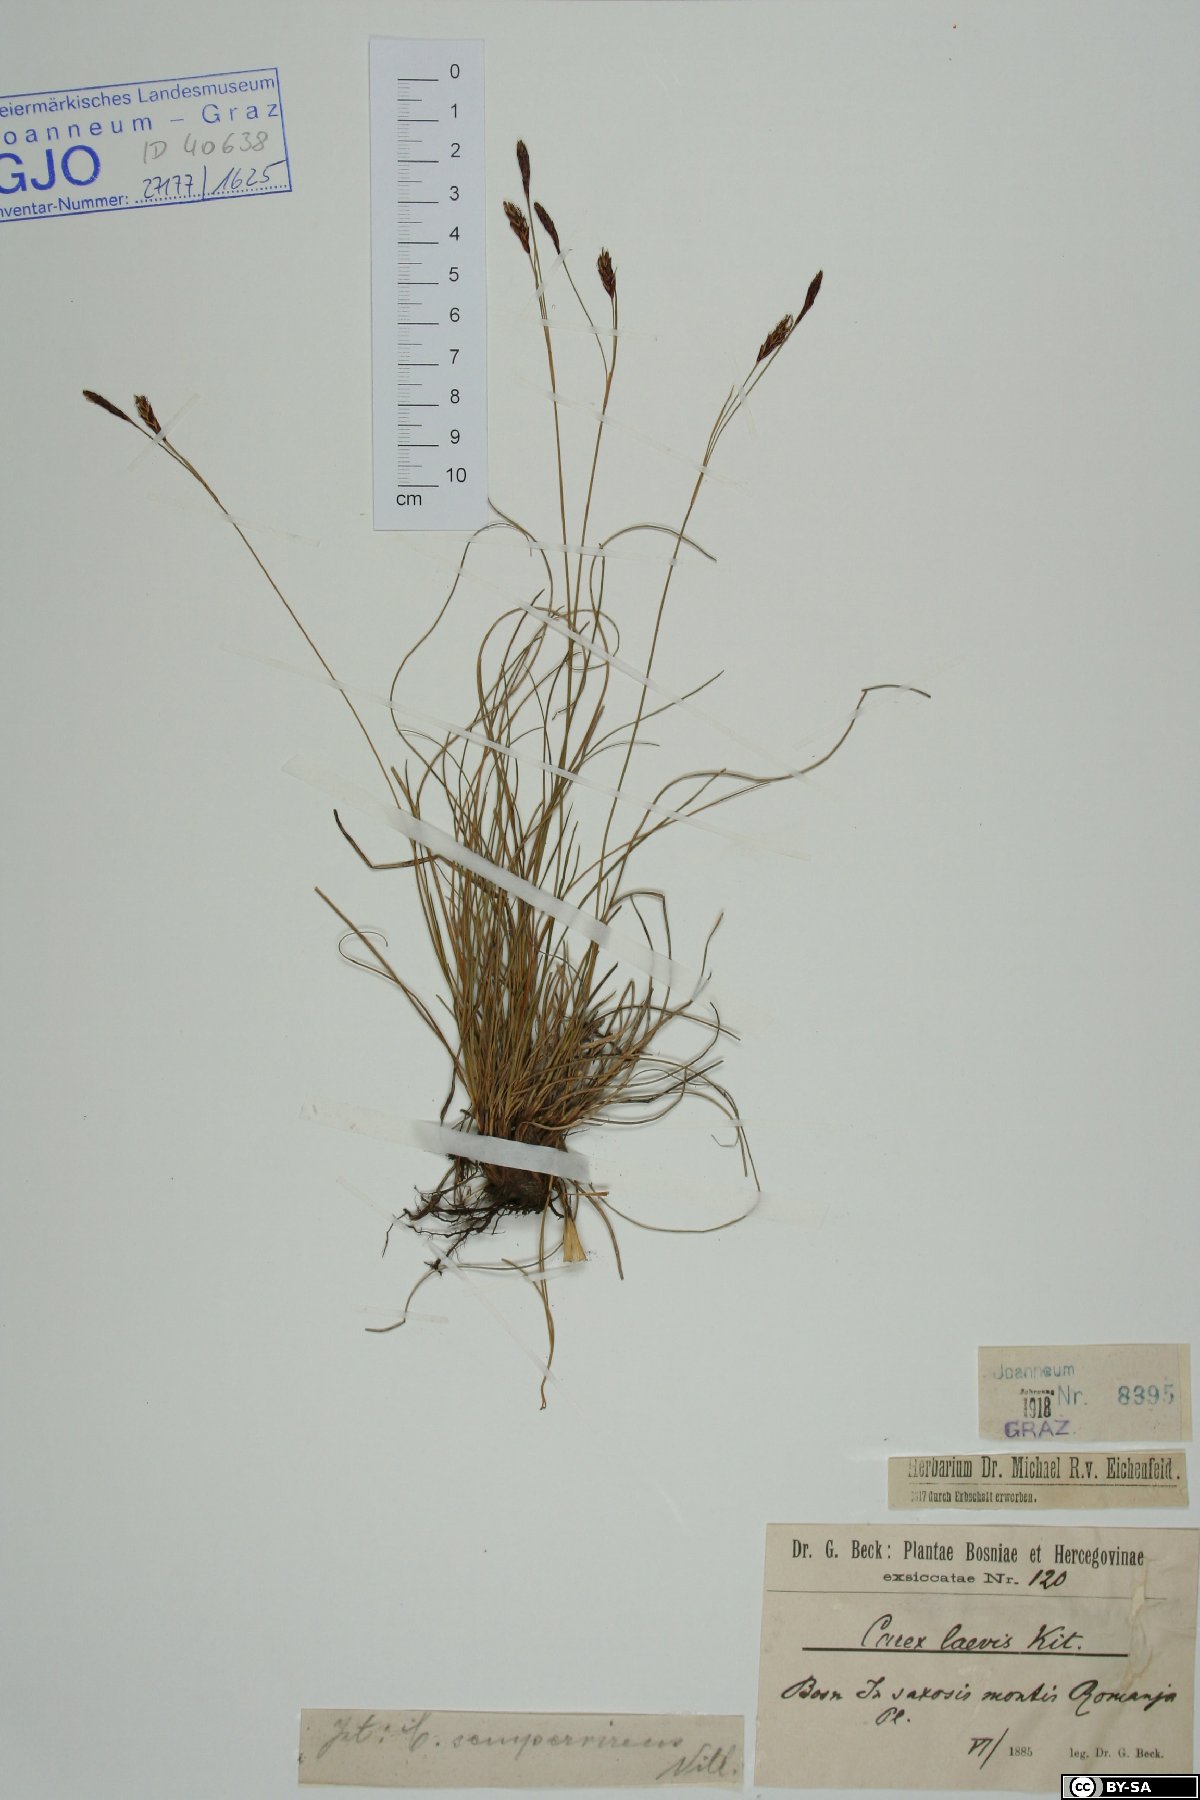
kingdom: Plantae
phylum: Tracheophyta
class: Liliopsida
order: Poales
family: Cyperaceae
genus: Carex
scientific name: Carex kitaibeliana
